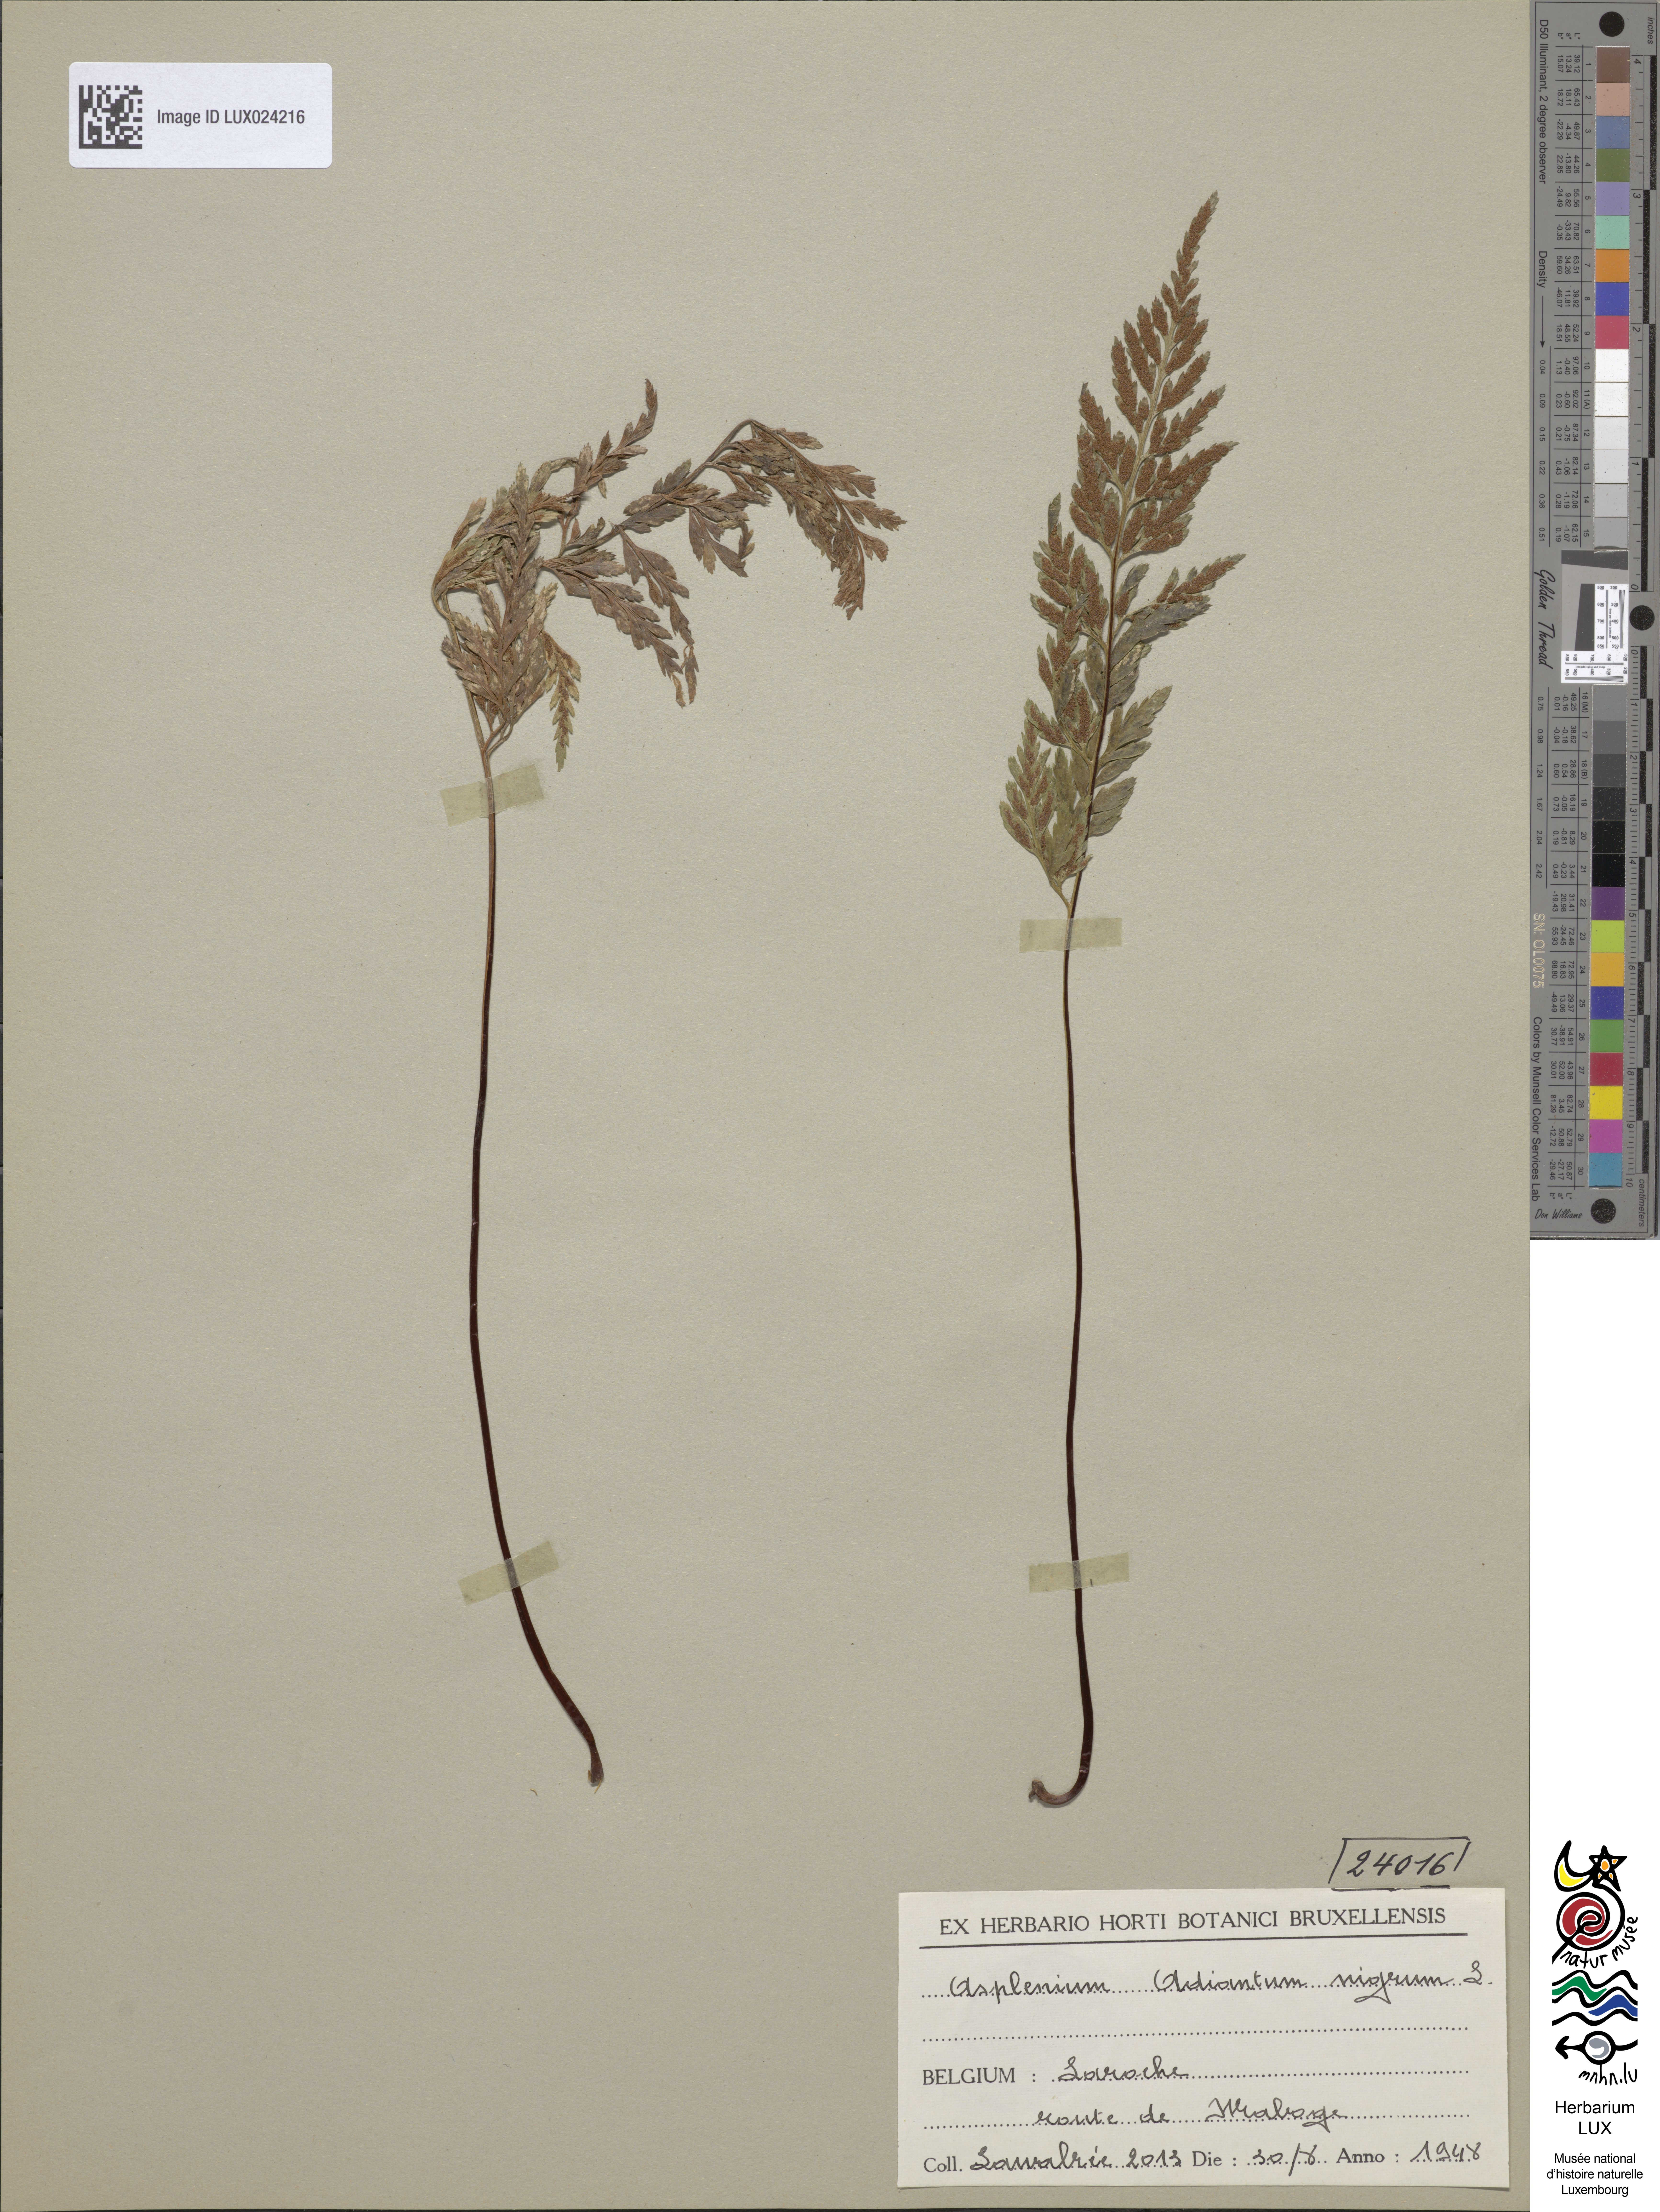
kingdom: Plantae
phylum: Tracheophyta
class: Polypodiopsida
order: Polypodiales
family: Aspleniaceae
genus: Asplenium
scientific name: Asplenium adiantum-nigrum
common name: Black spleenwort
